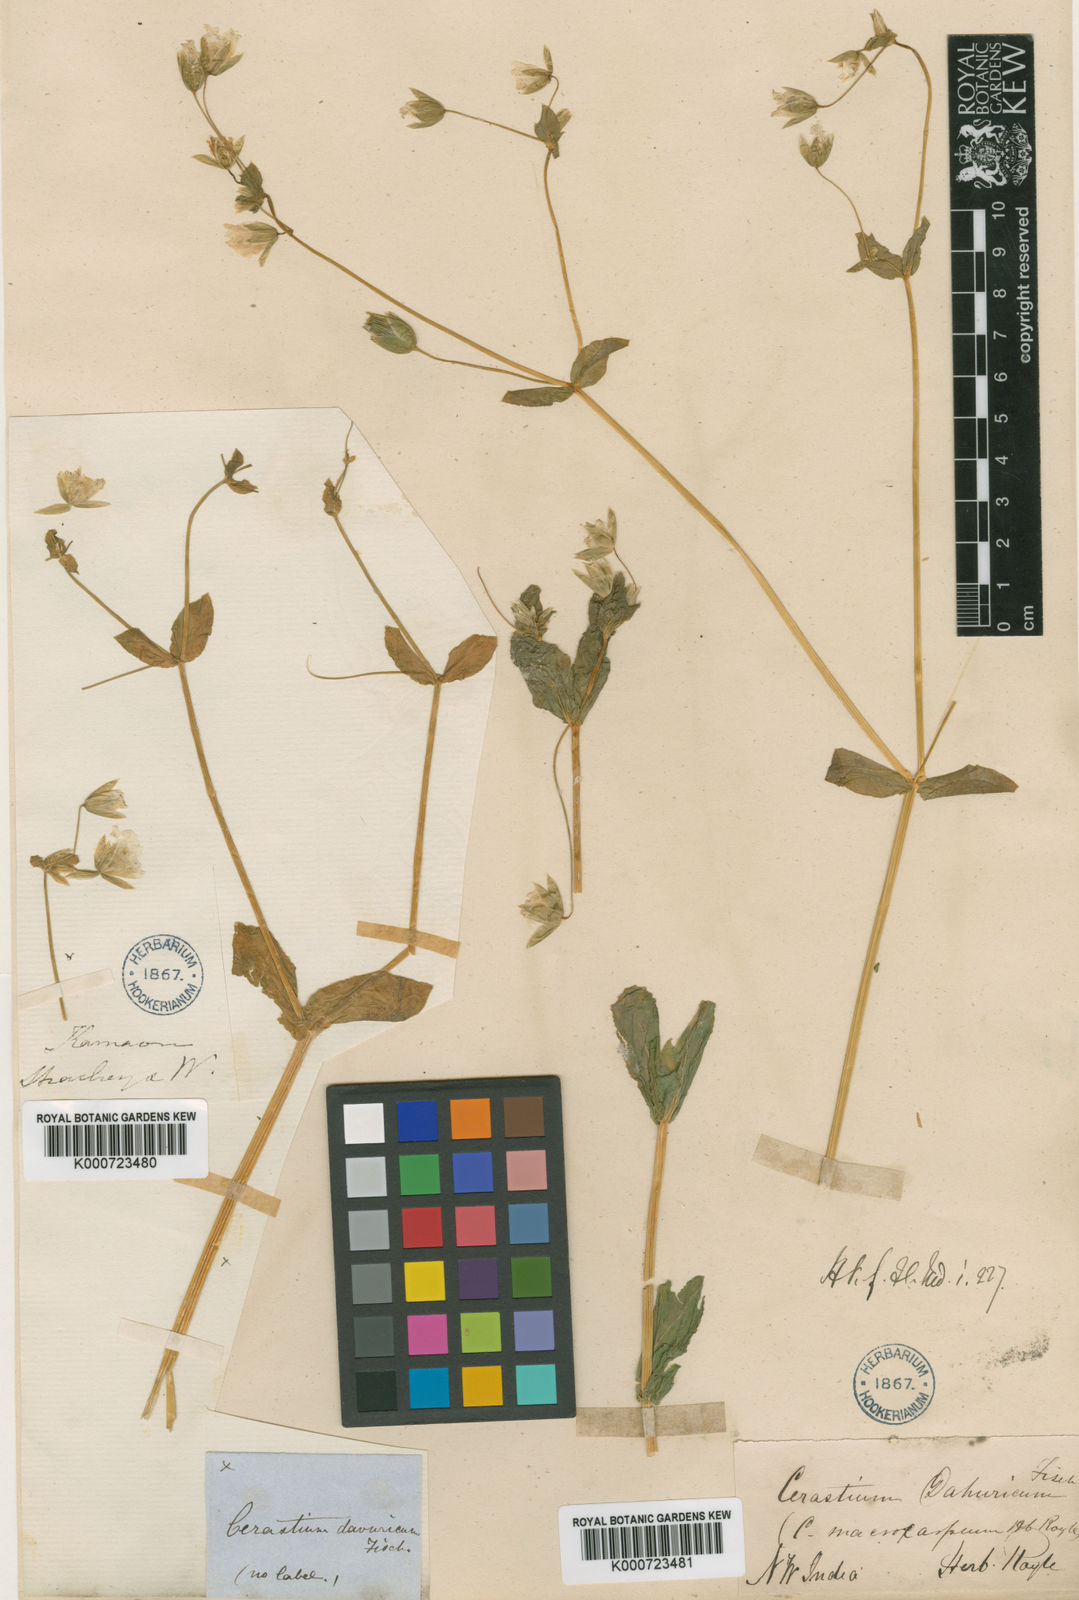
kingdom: Plantae
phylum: Tracheophyta
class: Magnoliopsida
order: Caryophyllales
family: Caryophyllaceae
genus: Dichodon
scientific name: Dichodon davuricum
